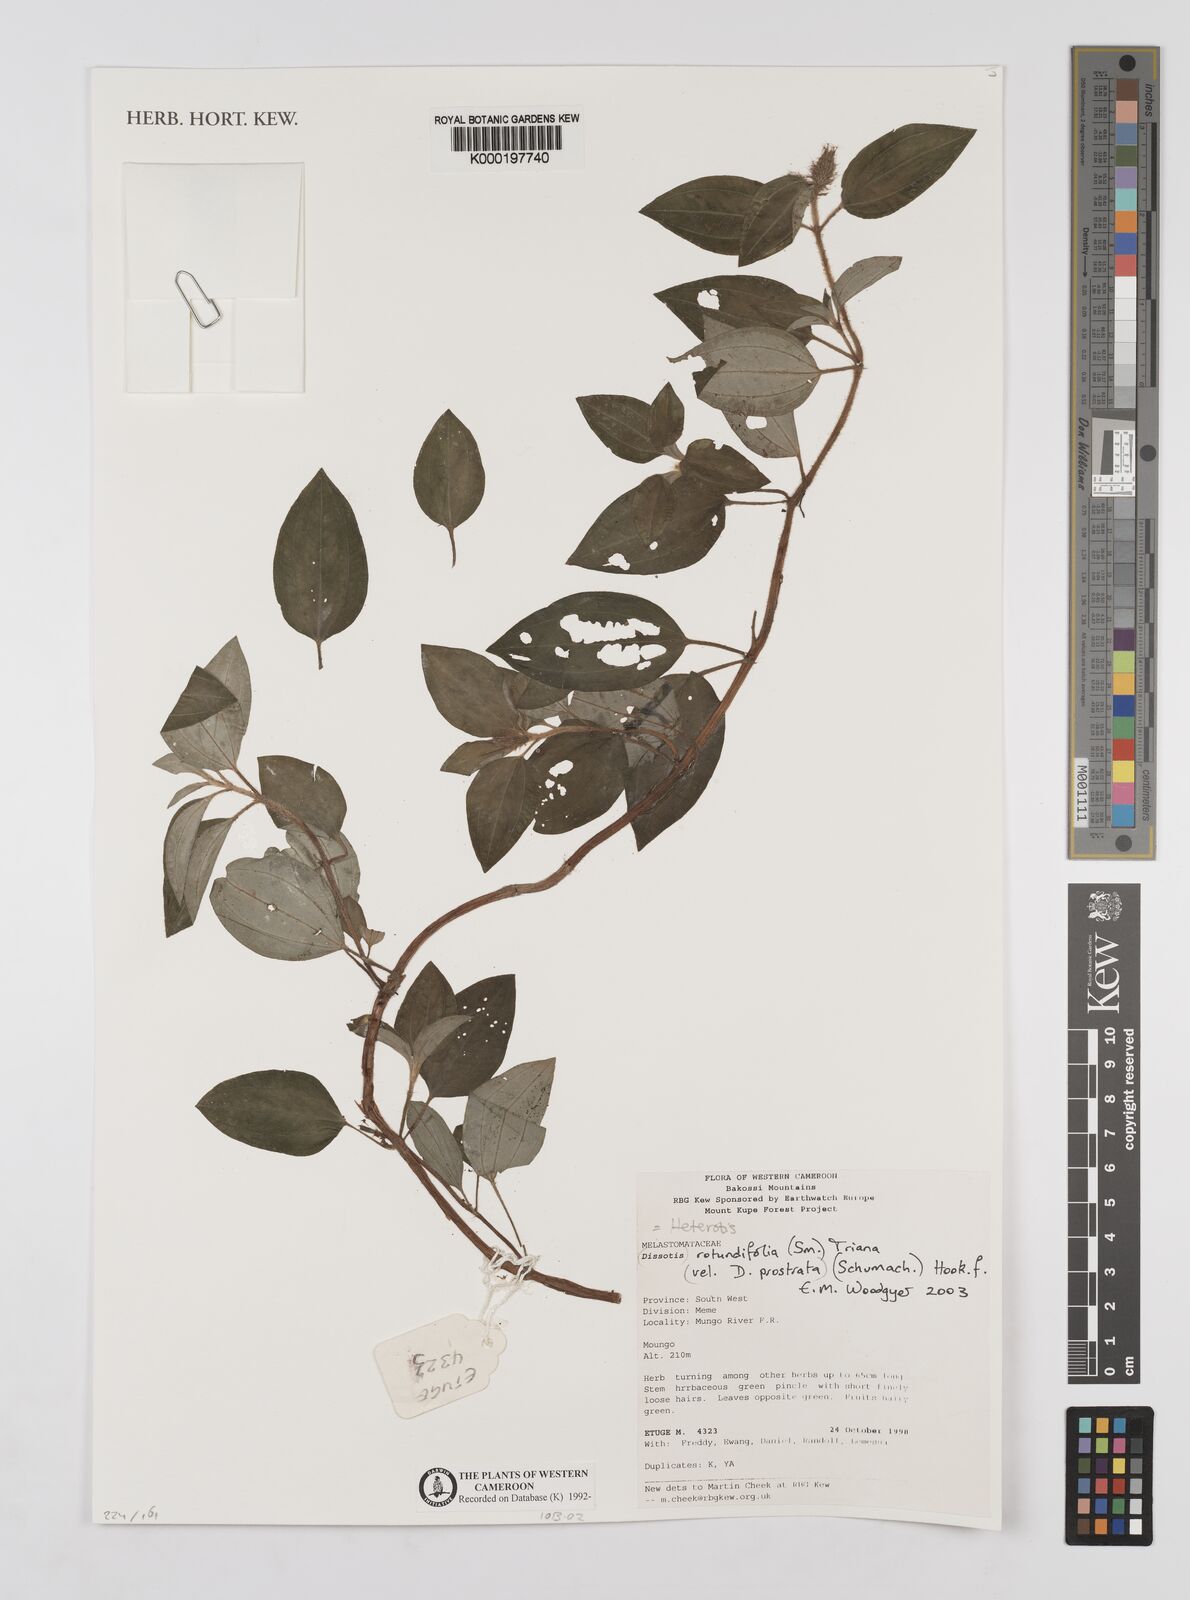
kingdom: Plantae
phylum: Tracheophyta
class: Magnoliopsida
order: Myrtales
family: Melastomataceae
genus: Dissotis
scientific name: Dissotis
